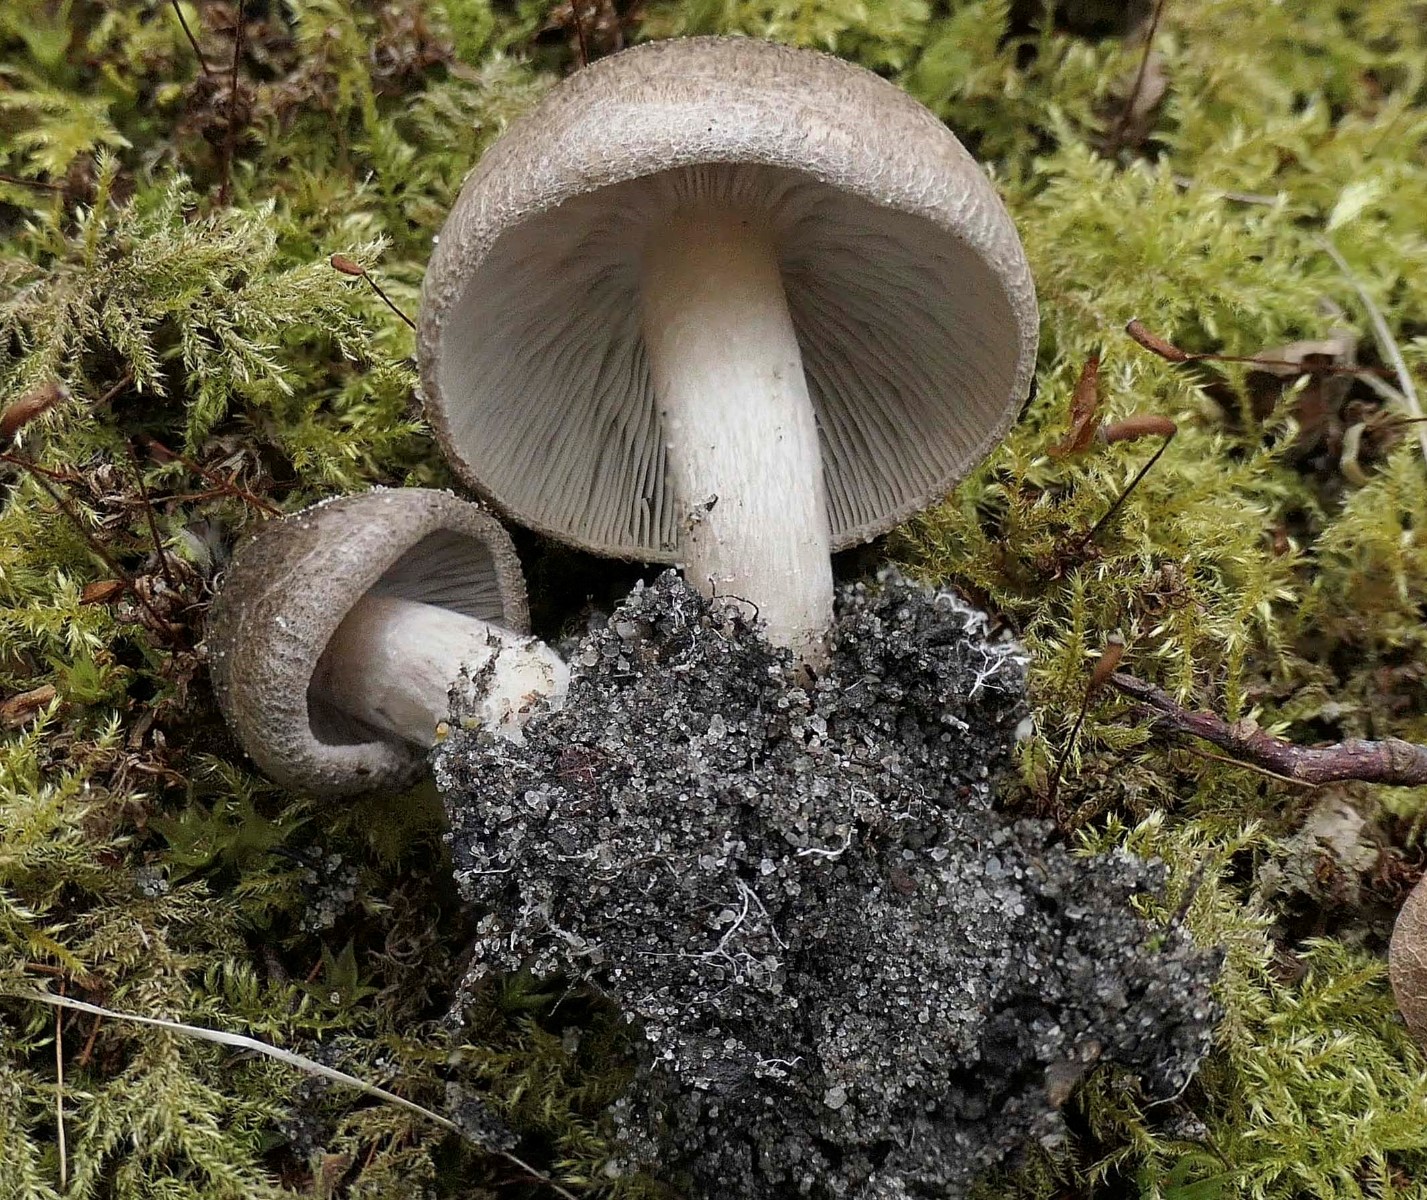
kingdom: Fungi
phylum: Basidiomycota
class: Agaricomycetes
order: Agaricales
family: Tricholomataceae
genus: Tricholoma
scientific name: Tricholoma argyraceum
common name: slør-ridderhat
